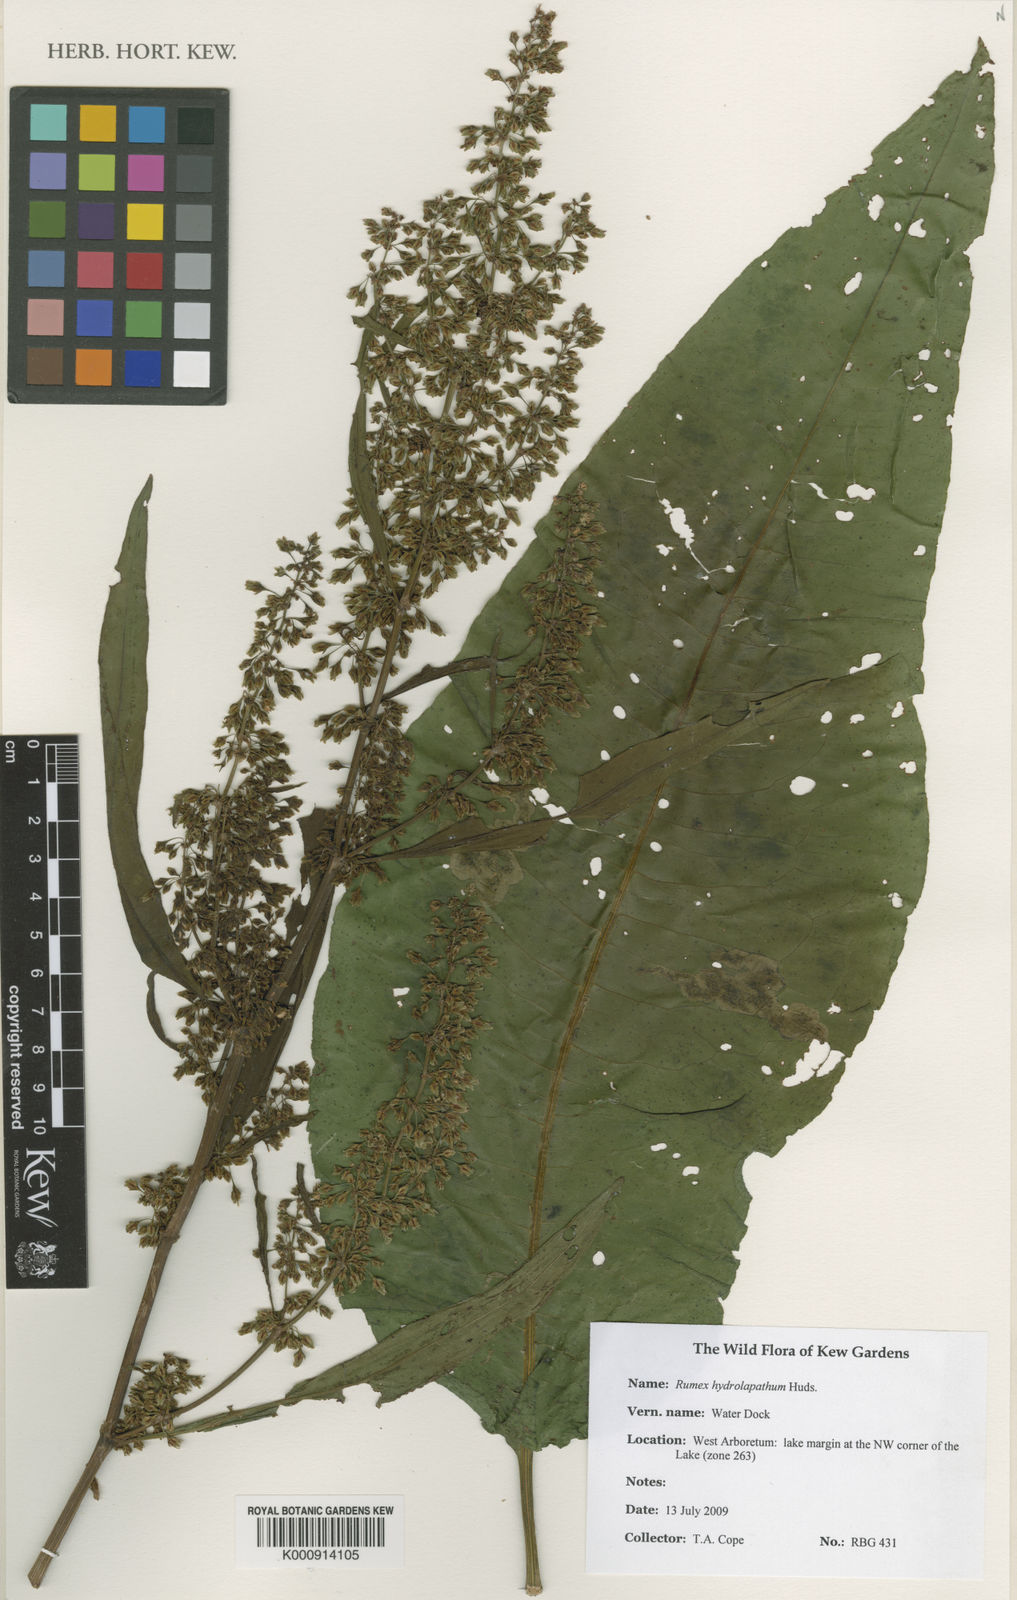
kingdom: Plantae
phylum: Tracheophyta
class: Magnoliopsida
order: Caryophyllales
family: Polygonaceae
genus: Rumex
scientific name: Rumex hydrolapathum
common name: Water dock
